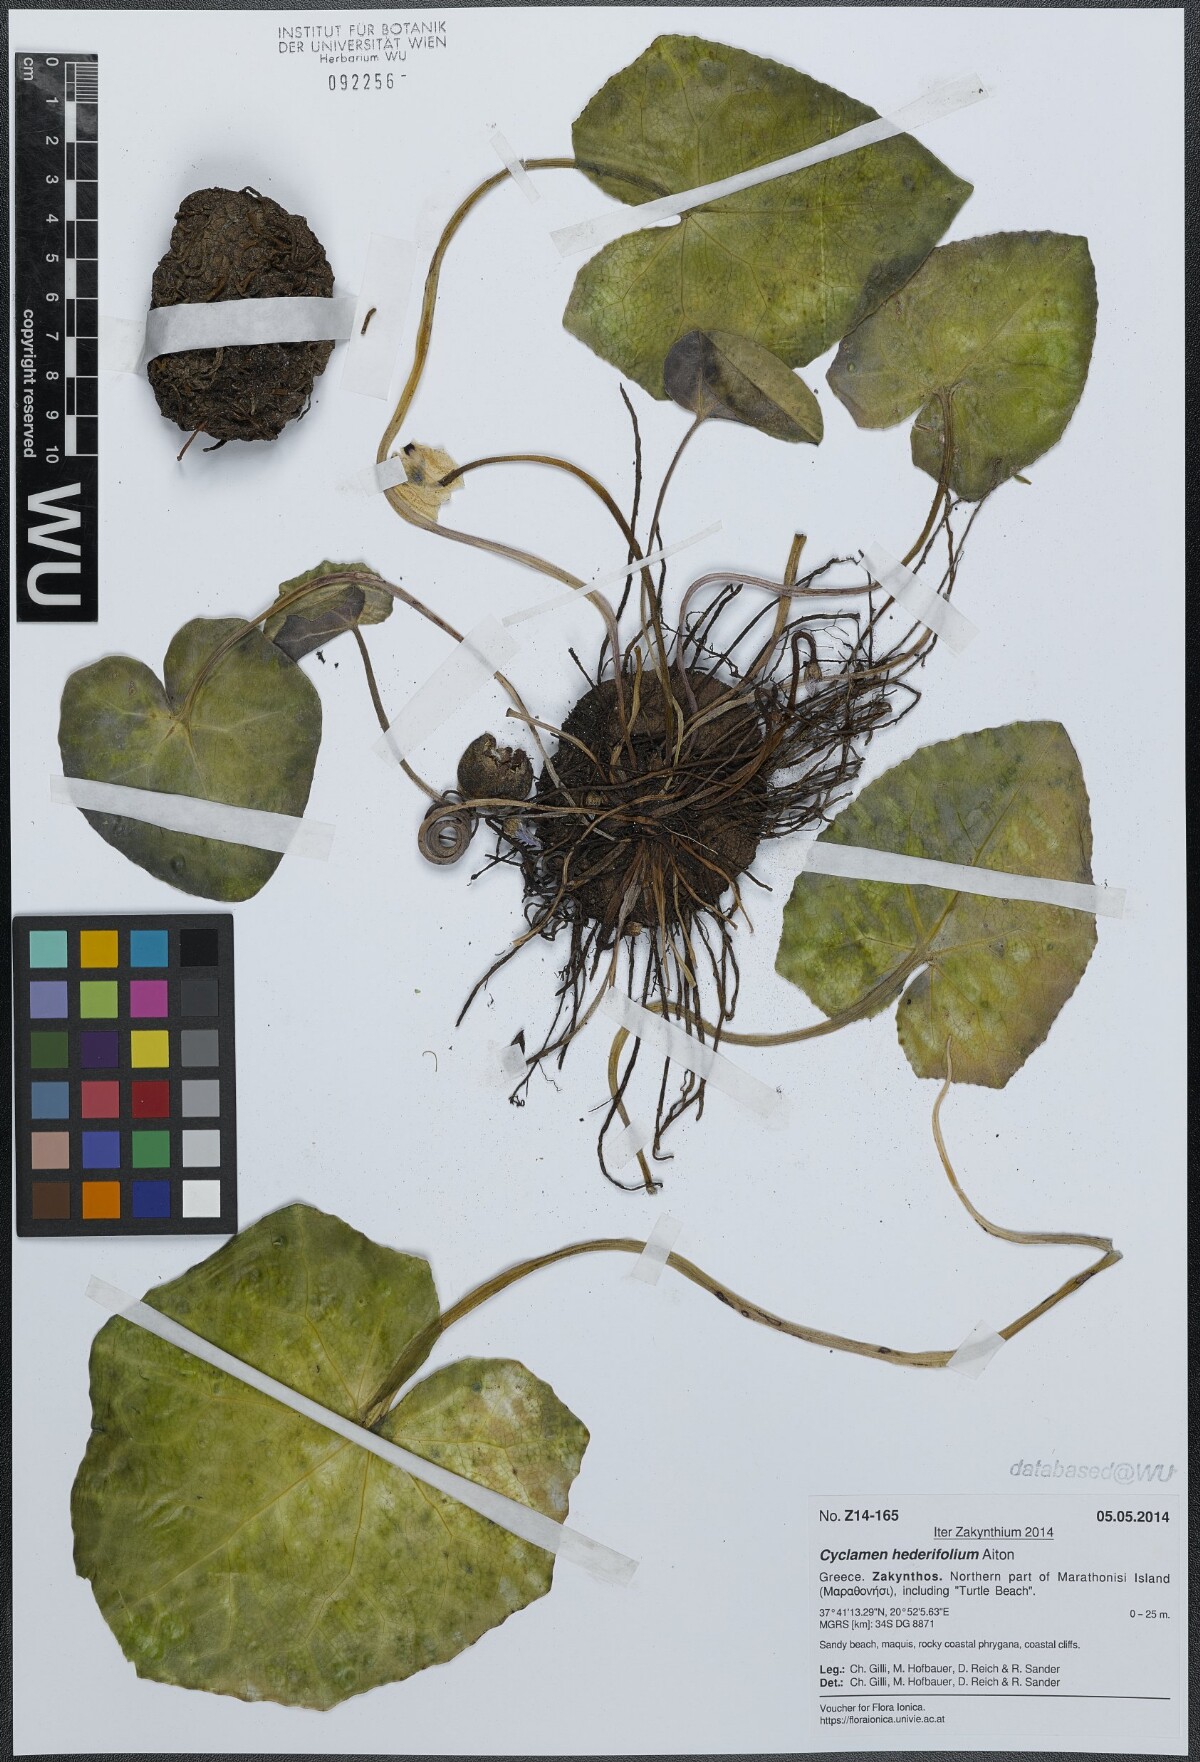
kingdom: Plantae
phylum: Tracheophyta
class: Magnoliopsida
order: Ericales
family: Primulaceae
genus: Cyclamen
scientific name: Cyclamen hederifolium
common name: Sowbread
